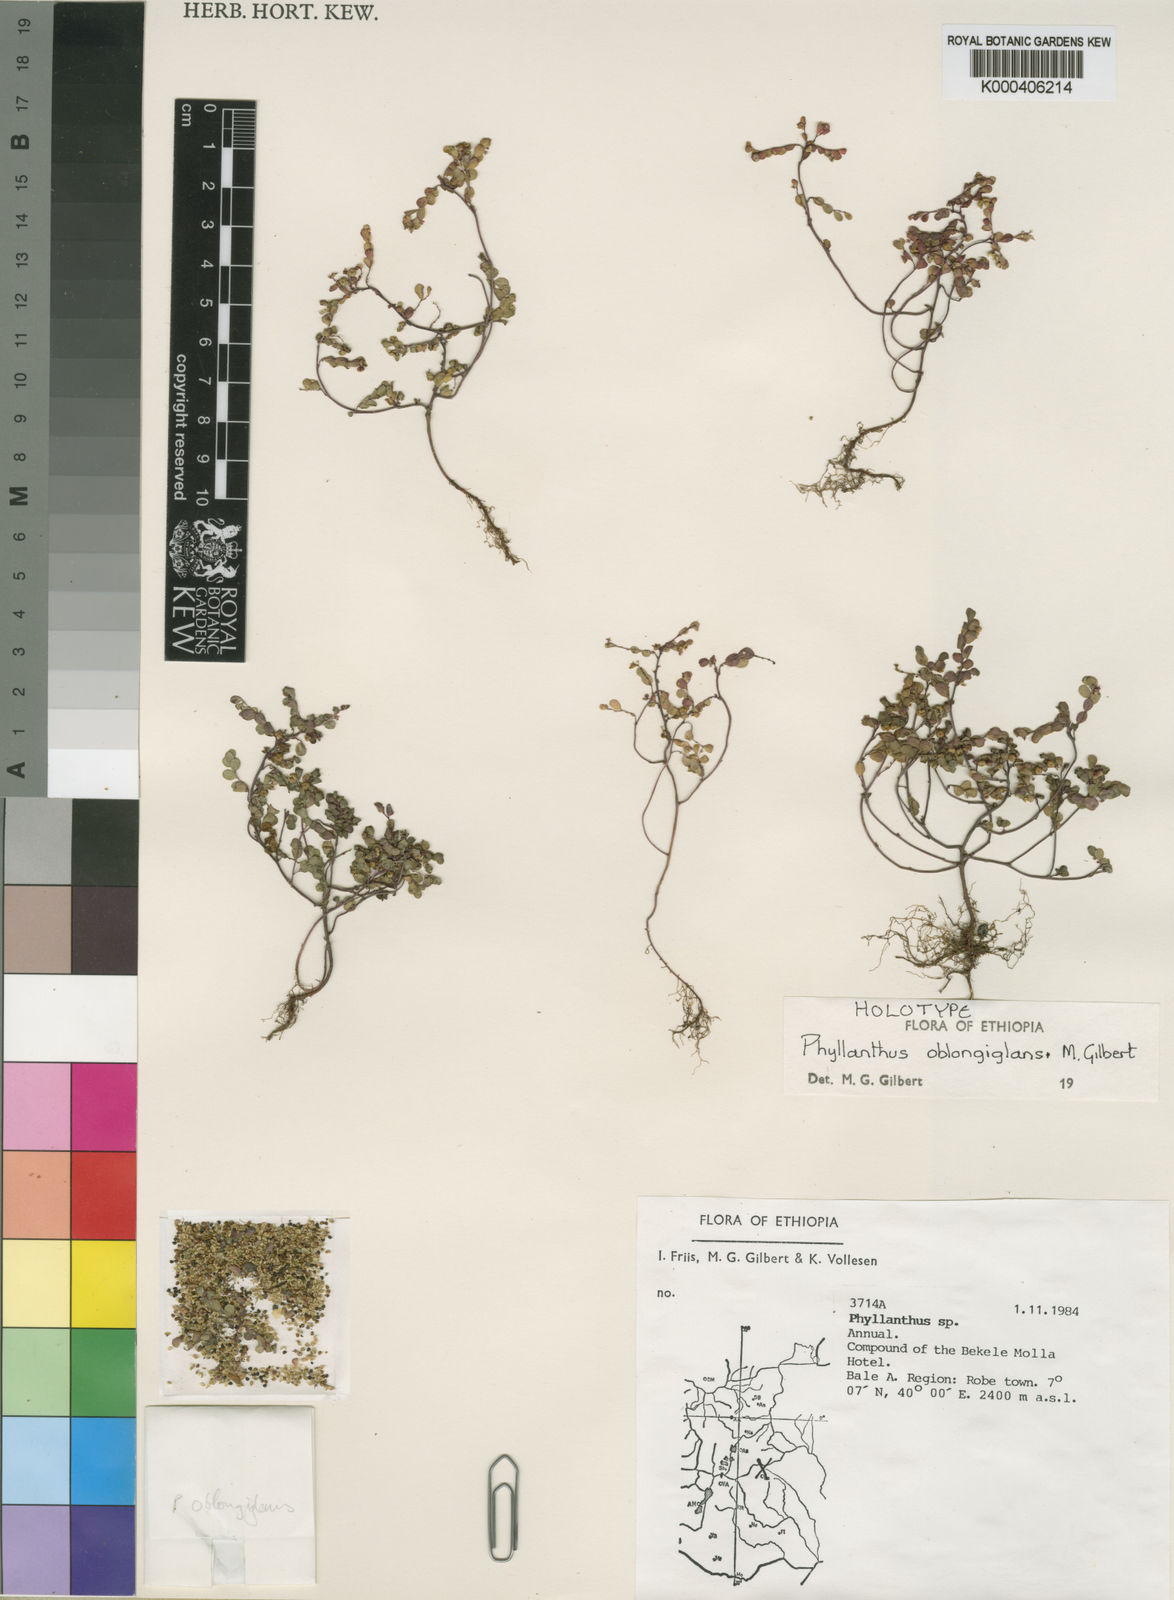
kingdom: Plantae
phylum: Tracheophyta
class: Magnoliopsida
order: Malpighiales
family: Phyllanthaceae
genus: Phyllanthus
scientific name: Phyllanthus oblongiglans
